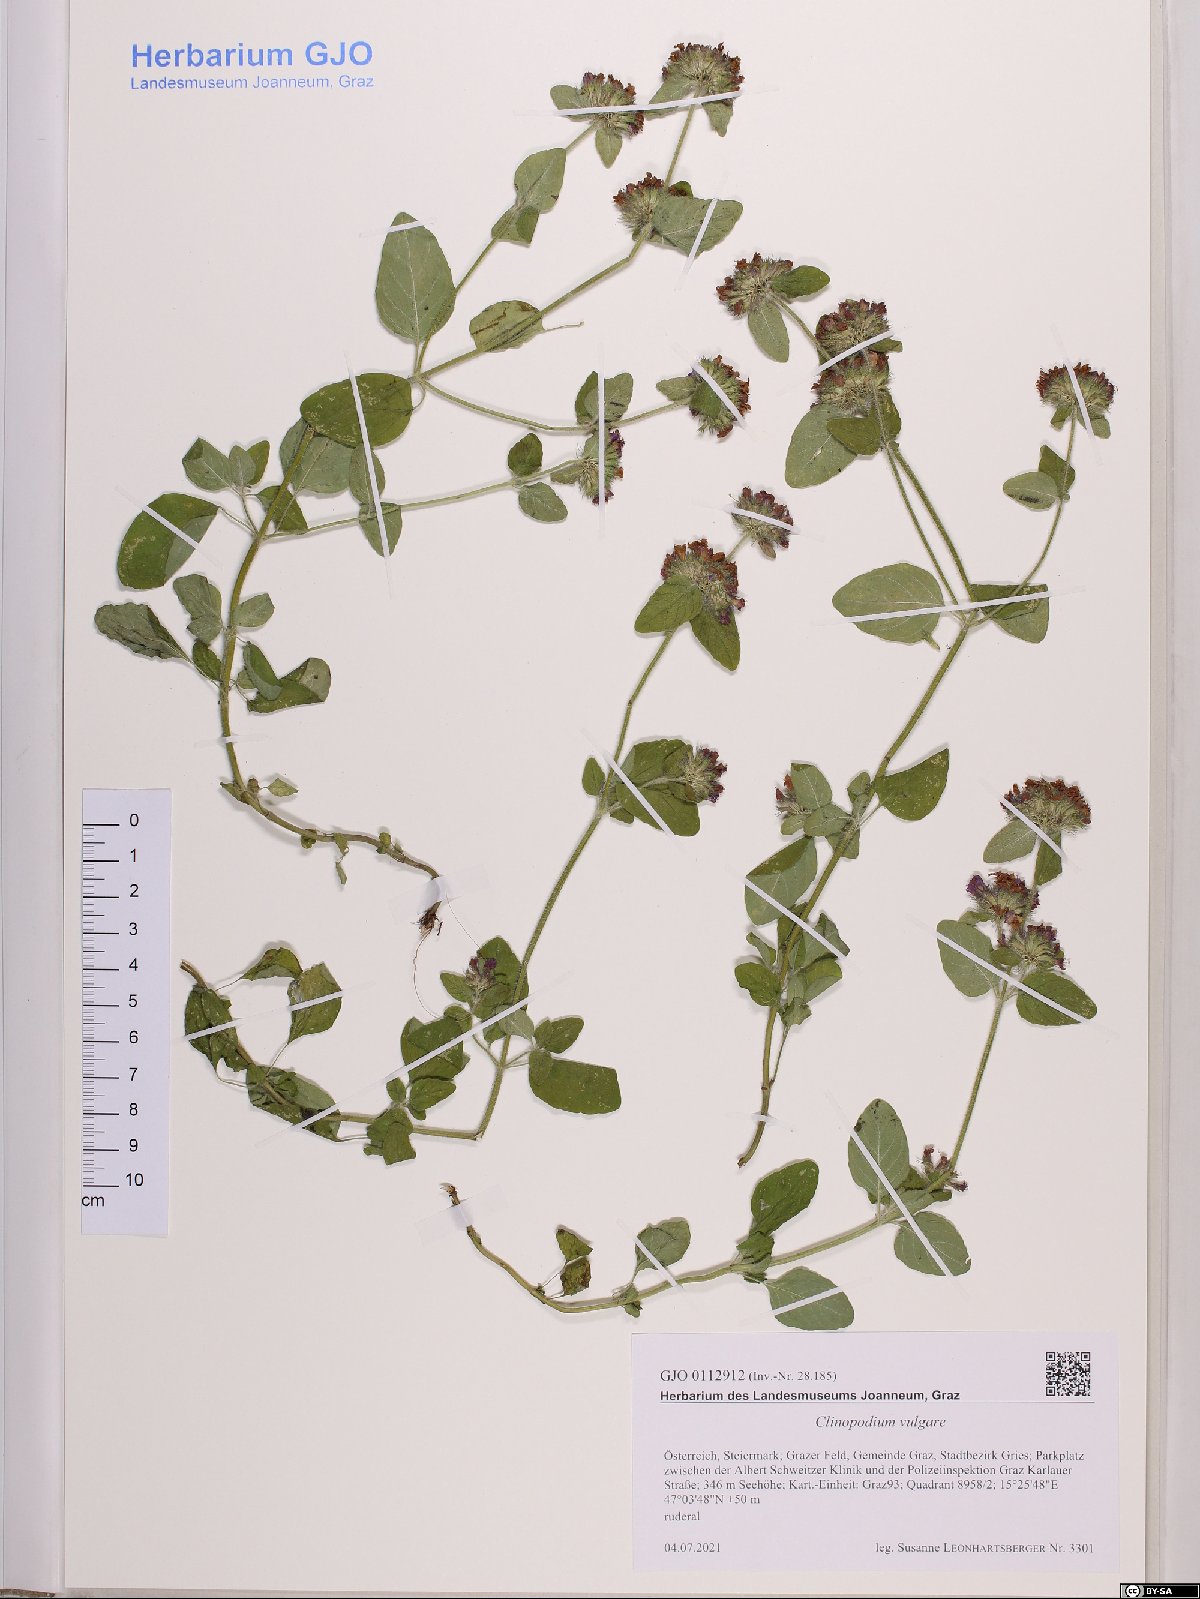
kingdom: Plantae
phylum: Tracheophyta
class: Magnoliopsida
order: Lamiales
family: Lamiaceae
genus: Clinopodium
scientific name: Clinopodium vulgare
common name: Wild basil
